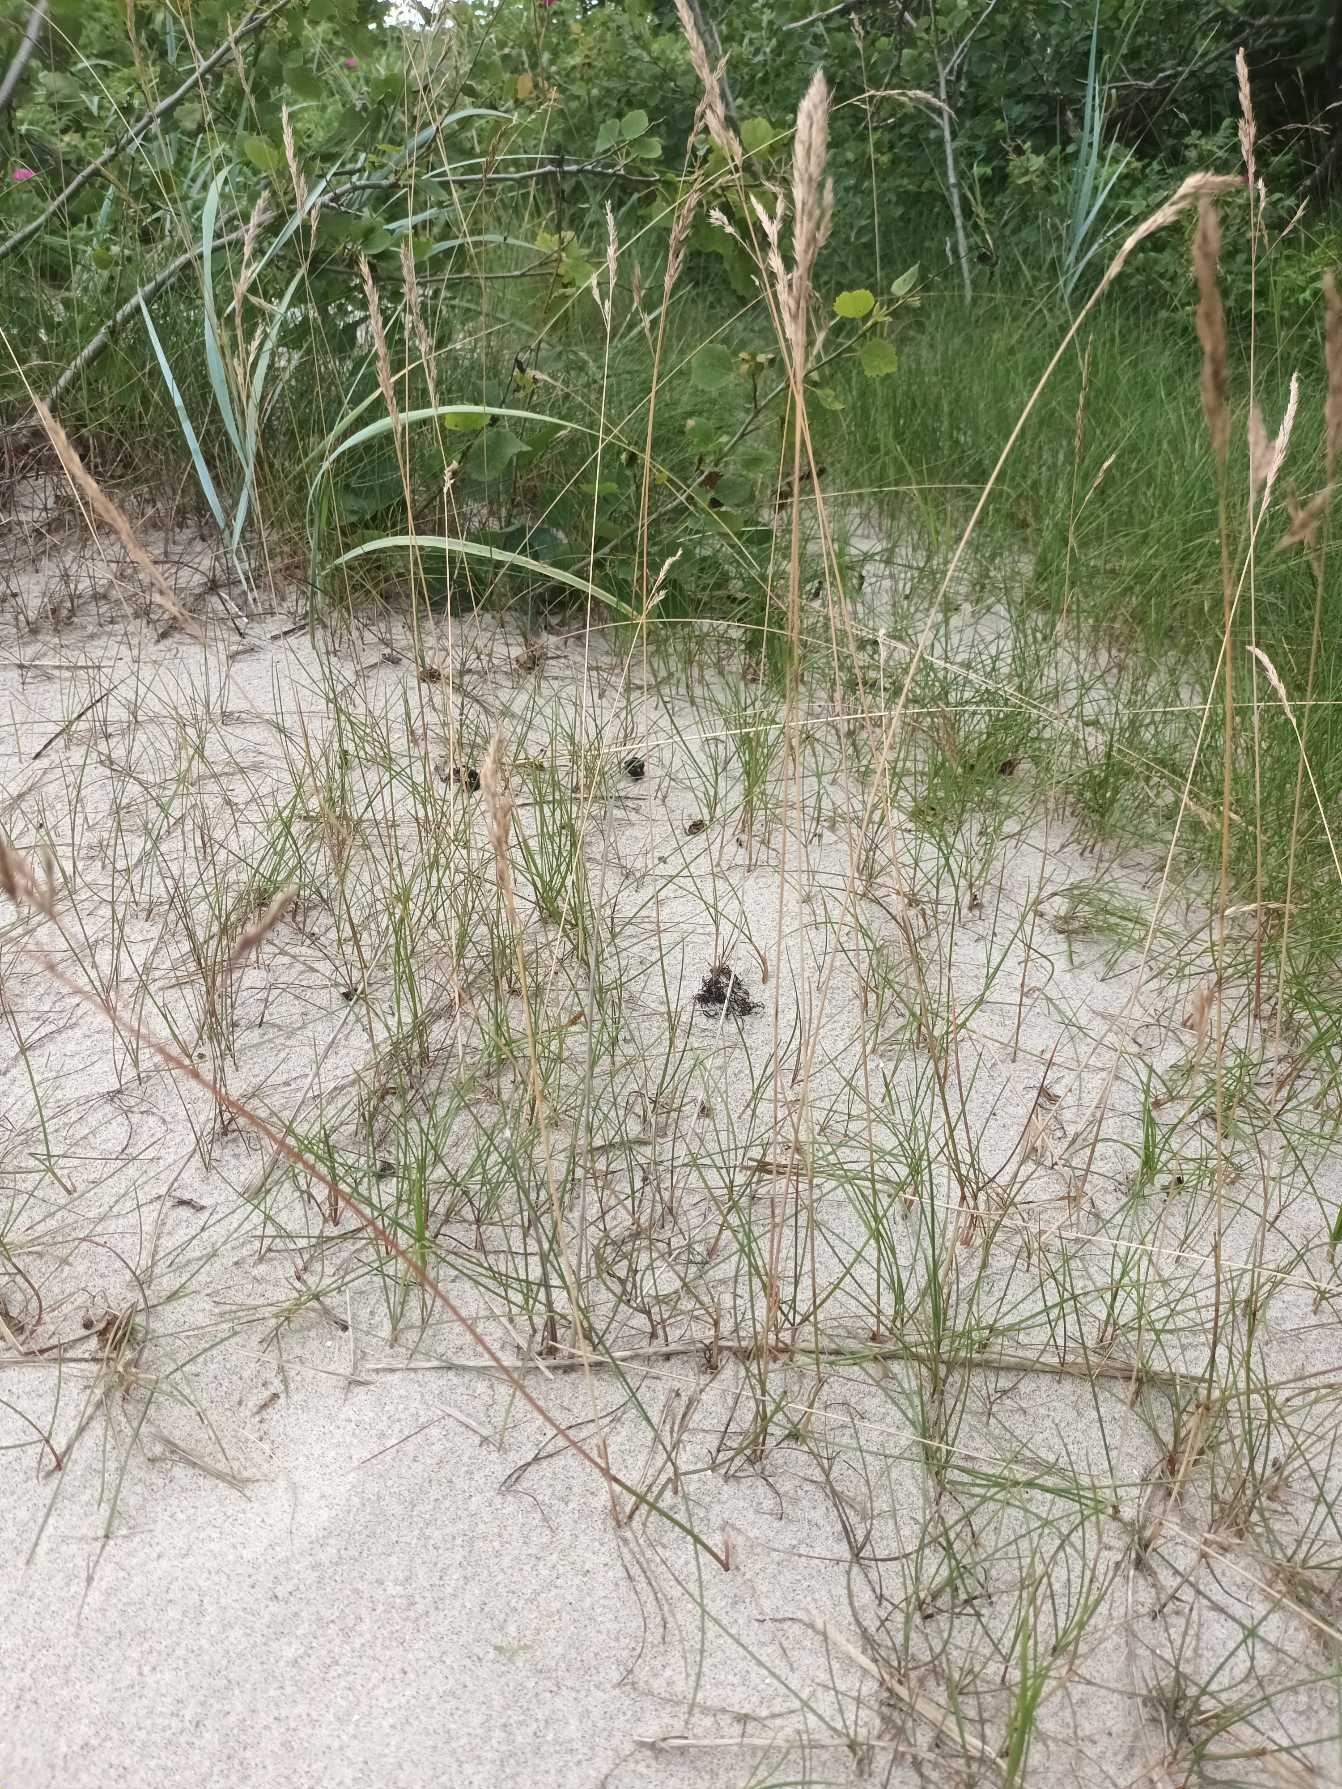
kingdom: Plantae
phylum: Tracheophyta
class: Liliopsida
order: Poales
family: Poaceae
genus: Festuca
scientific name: Festuca rubra
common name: Rød svingel
